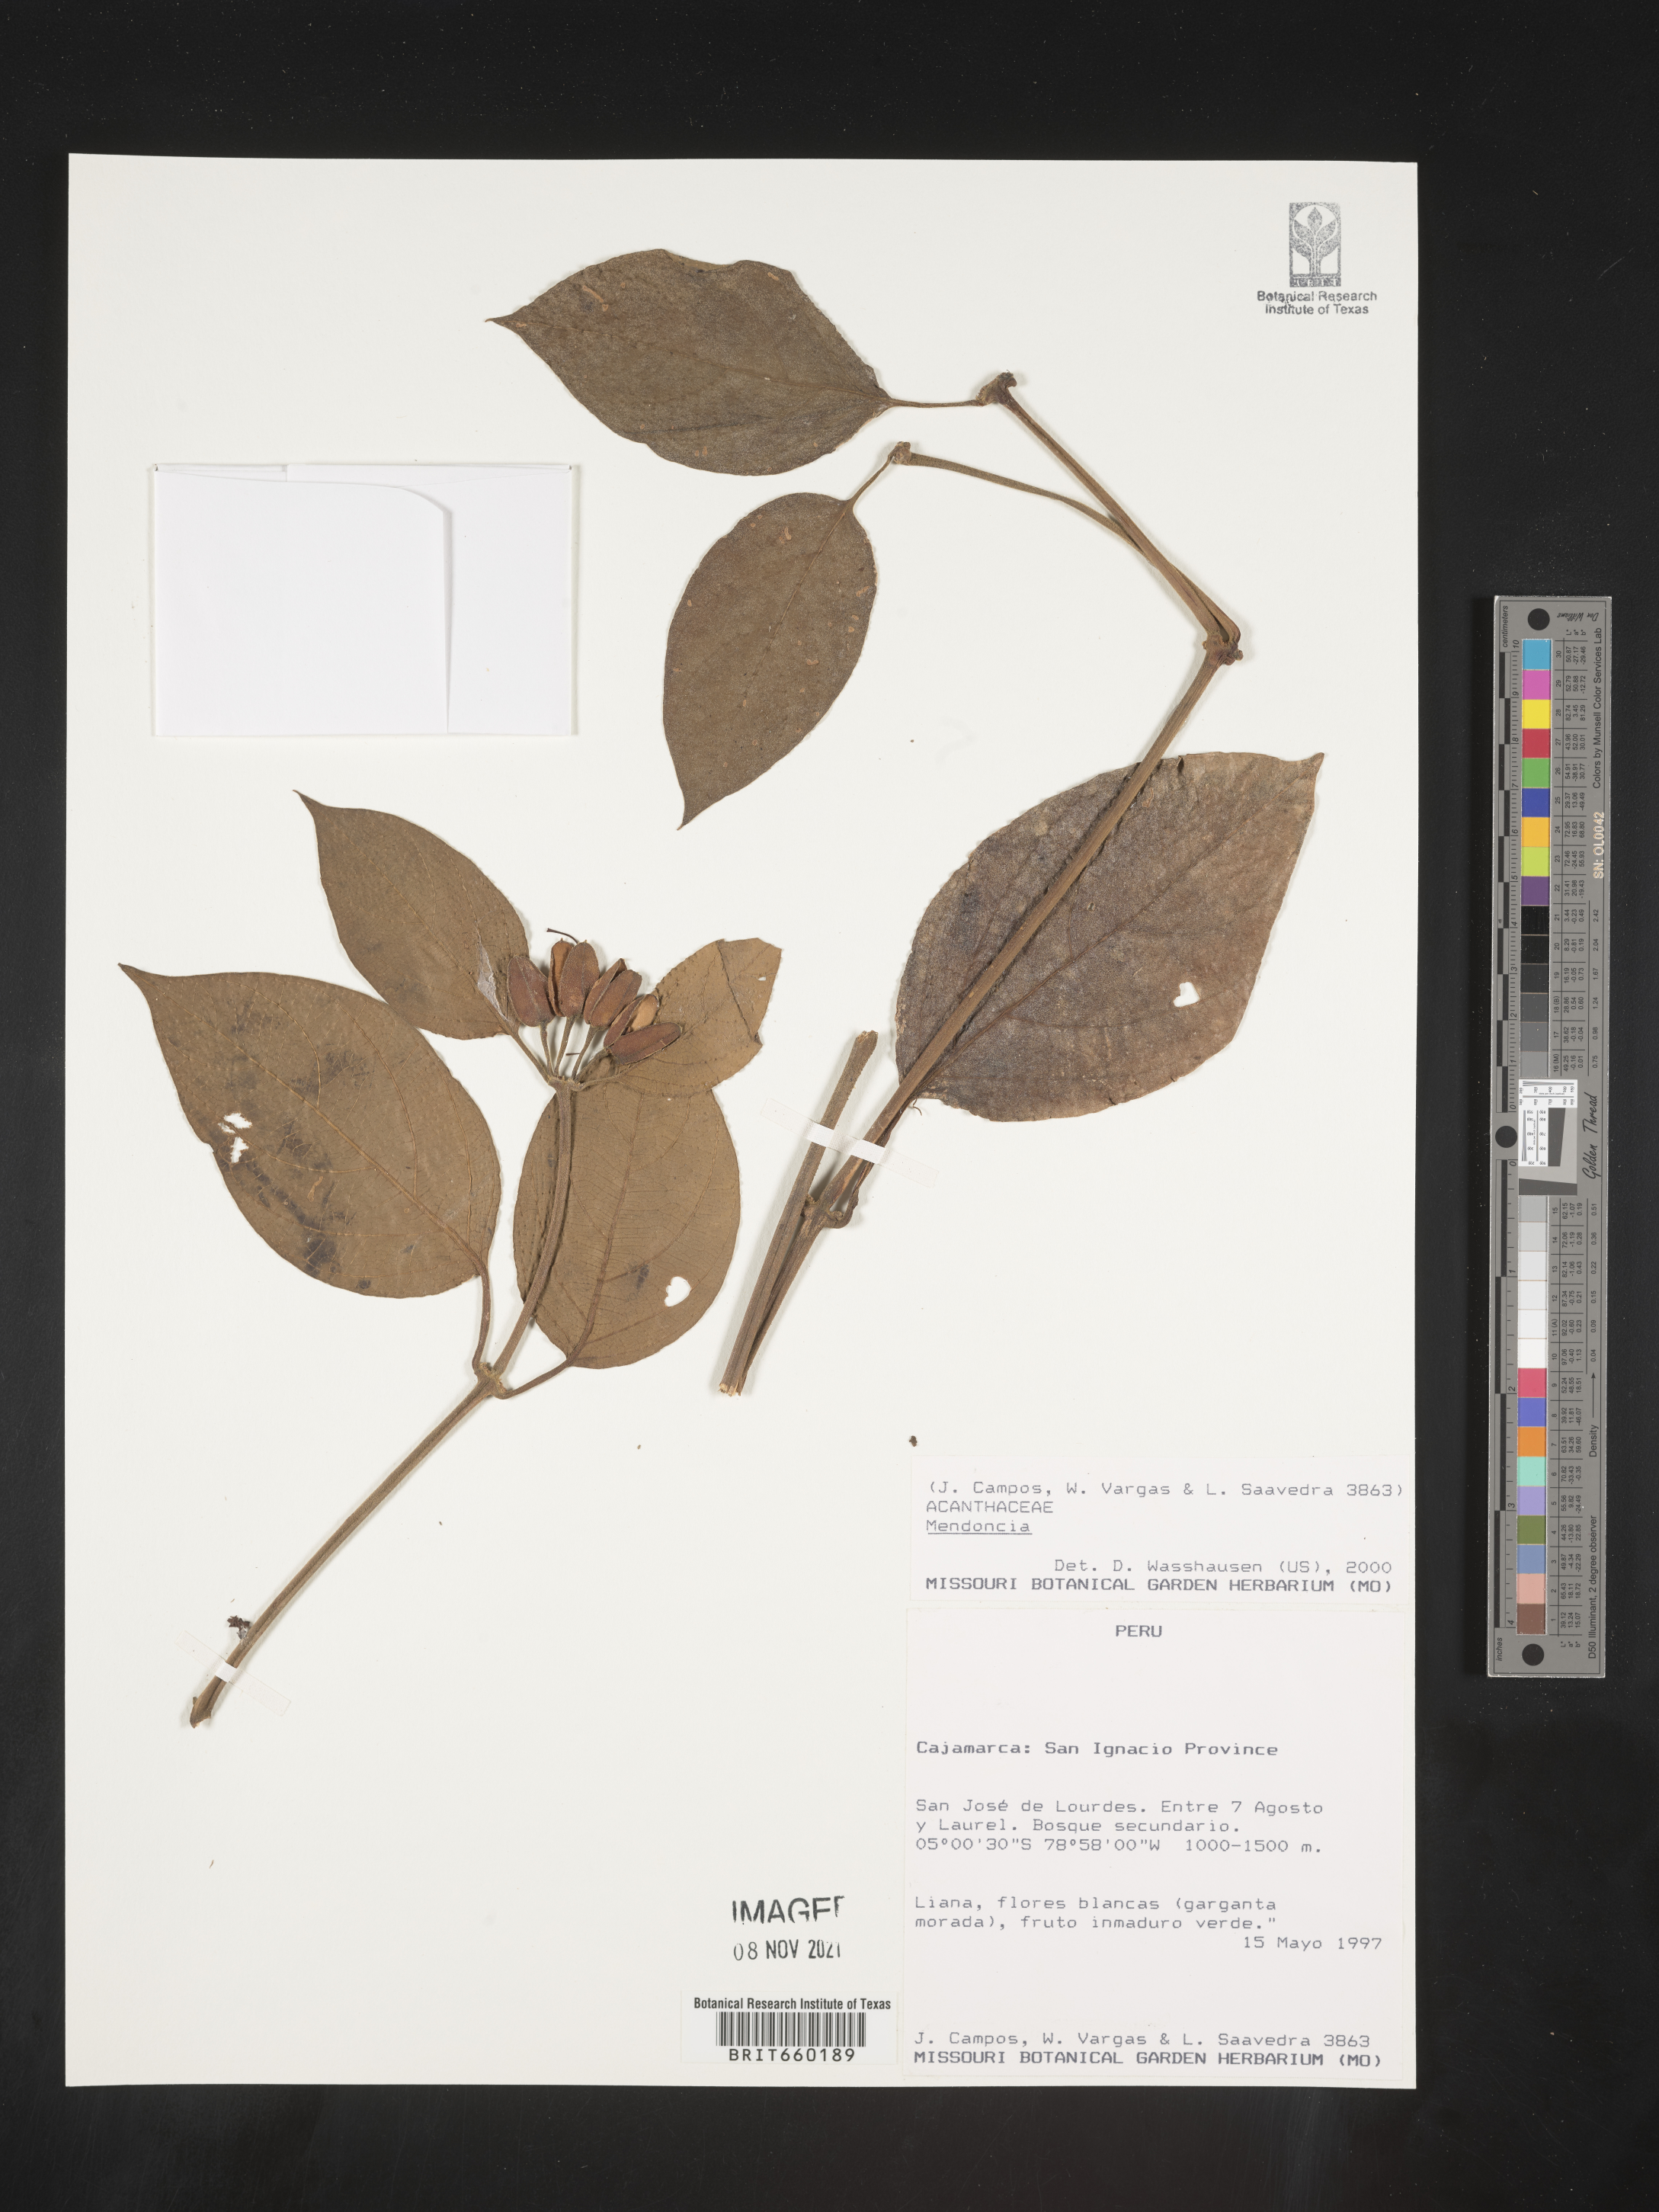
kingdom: Plantae
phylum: Tracheophyta
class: Magnoliopsida
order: Lamiales
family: Acanthaceae
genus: Mendoncia
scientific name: Mendoncia
